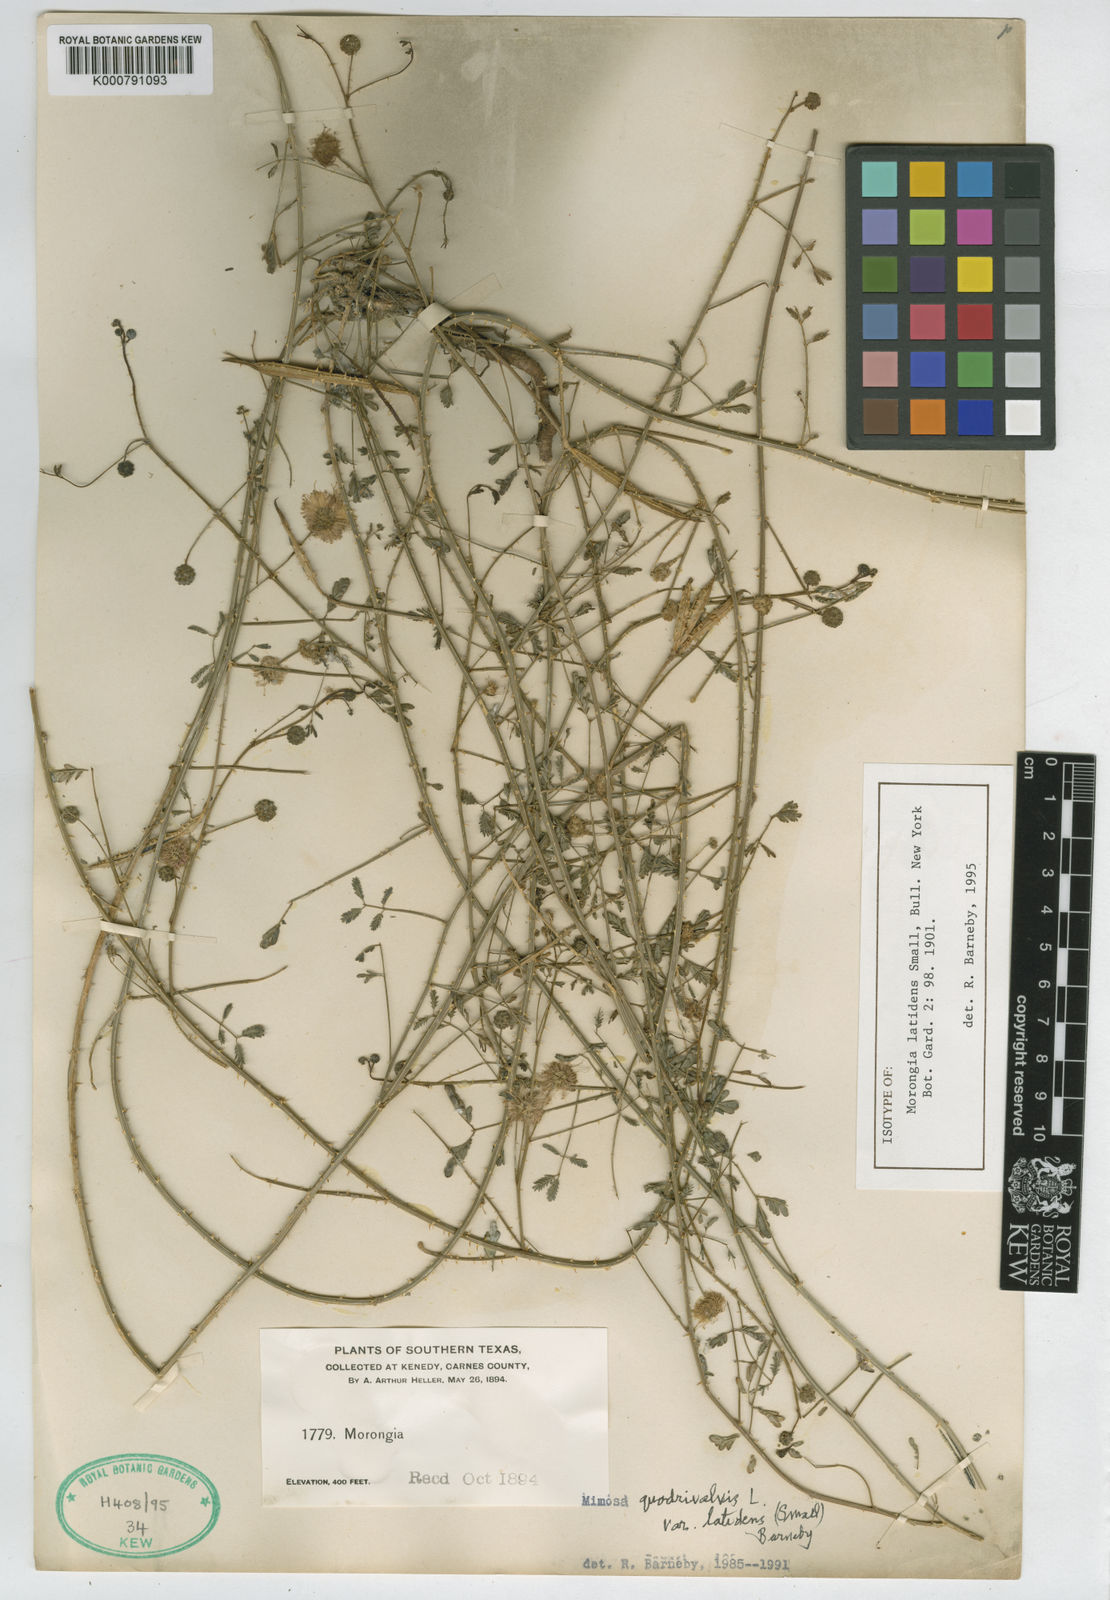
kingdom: Plantae
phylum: Tracheophyta
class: Magnoliopsida
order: Fabales
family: Fabaceae
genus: Mimosa
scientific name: Mimosa latidens
